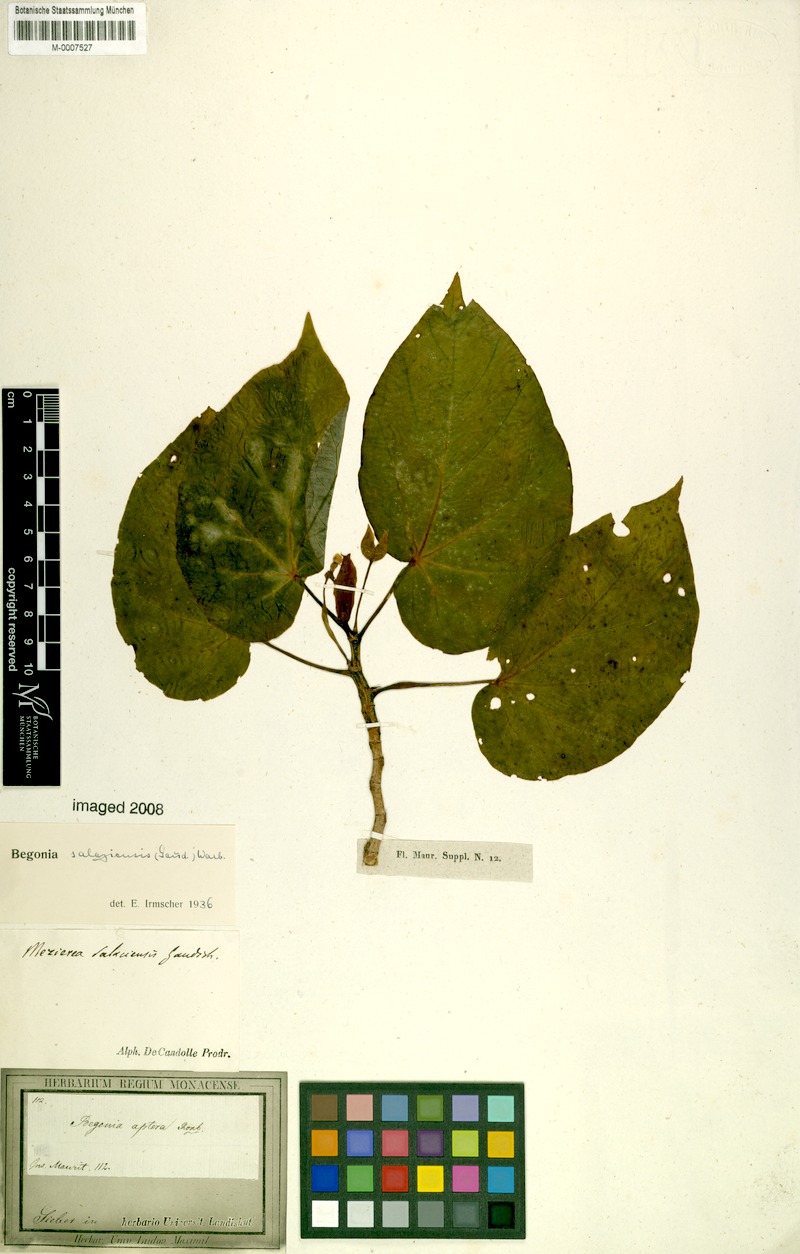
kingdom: Plantae
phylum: Tracheophyta
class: Magnoliopsida
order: Cucurbitales
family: Begoniaceae
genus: Begonia
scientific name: Begonia salaziensis
